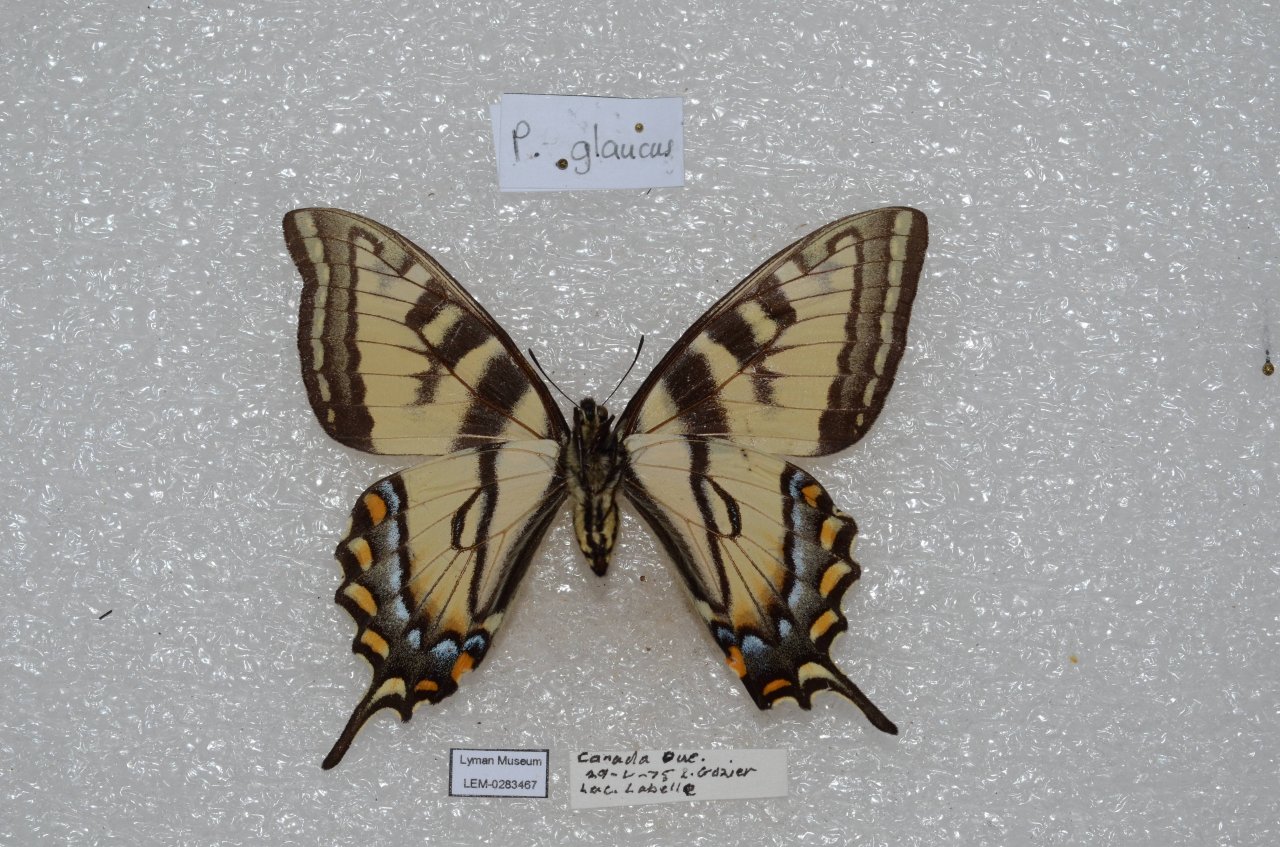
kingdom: Animalia
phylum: Arthropoda
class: Insecta
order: Lepidoptera
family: Papilionidae
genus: Pterourus
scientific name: Pterourus canadensis
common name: Canadian Tiger Swallowtail
